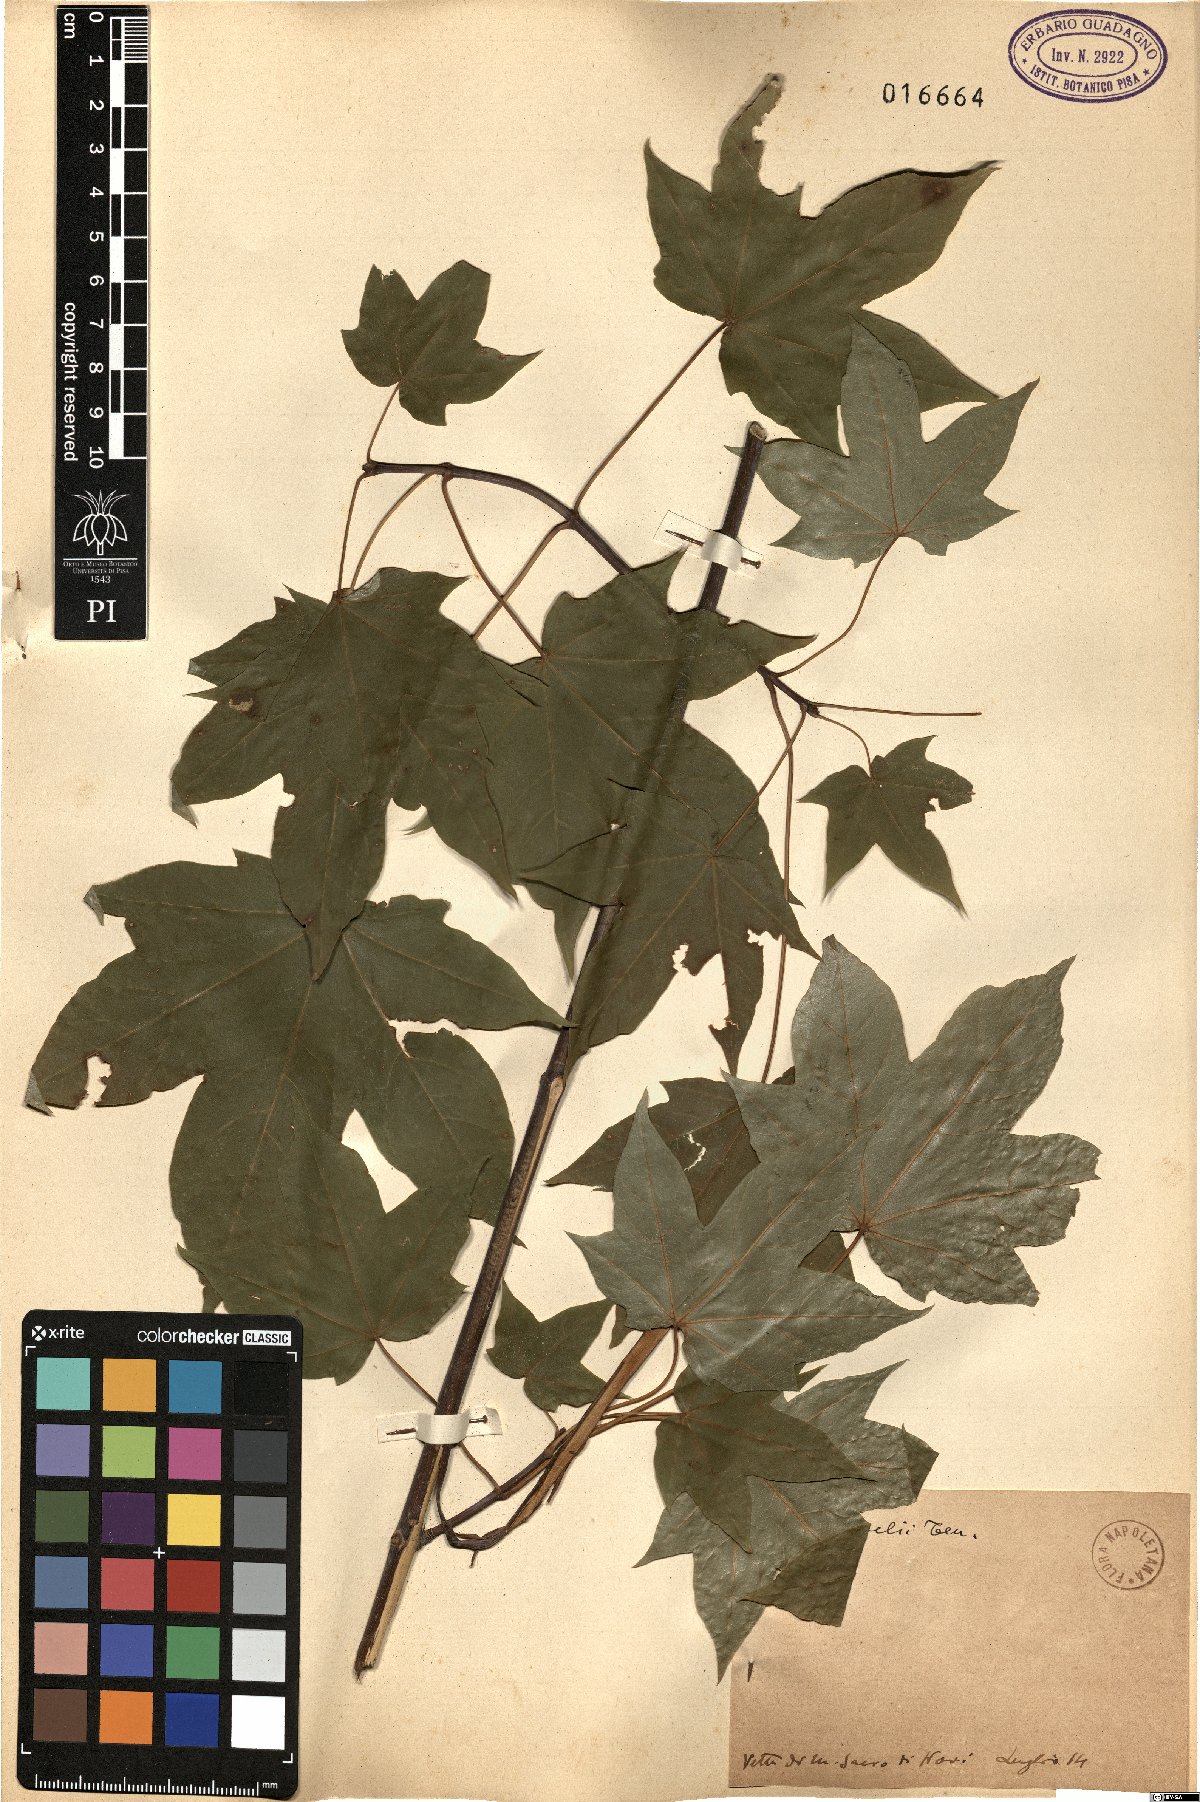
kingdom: Plantae
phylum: Tracheophyta
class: Magnoliopsida
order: Sapindales
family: Sapindaceae
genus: Acer
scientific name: Acer lobelii
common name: Lobel's maple
